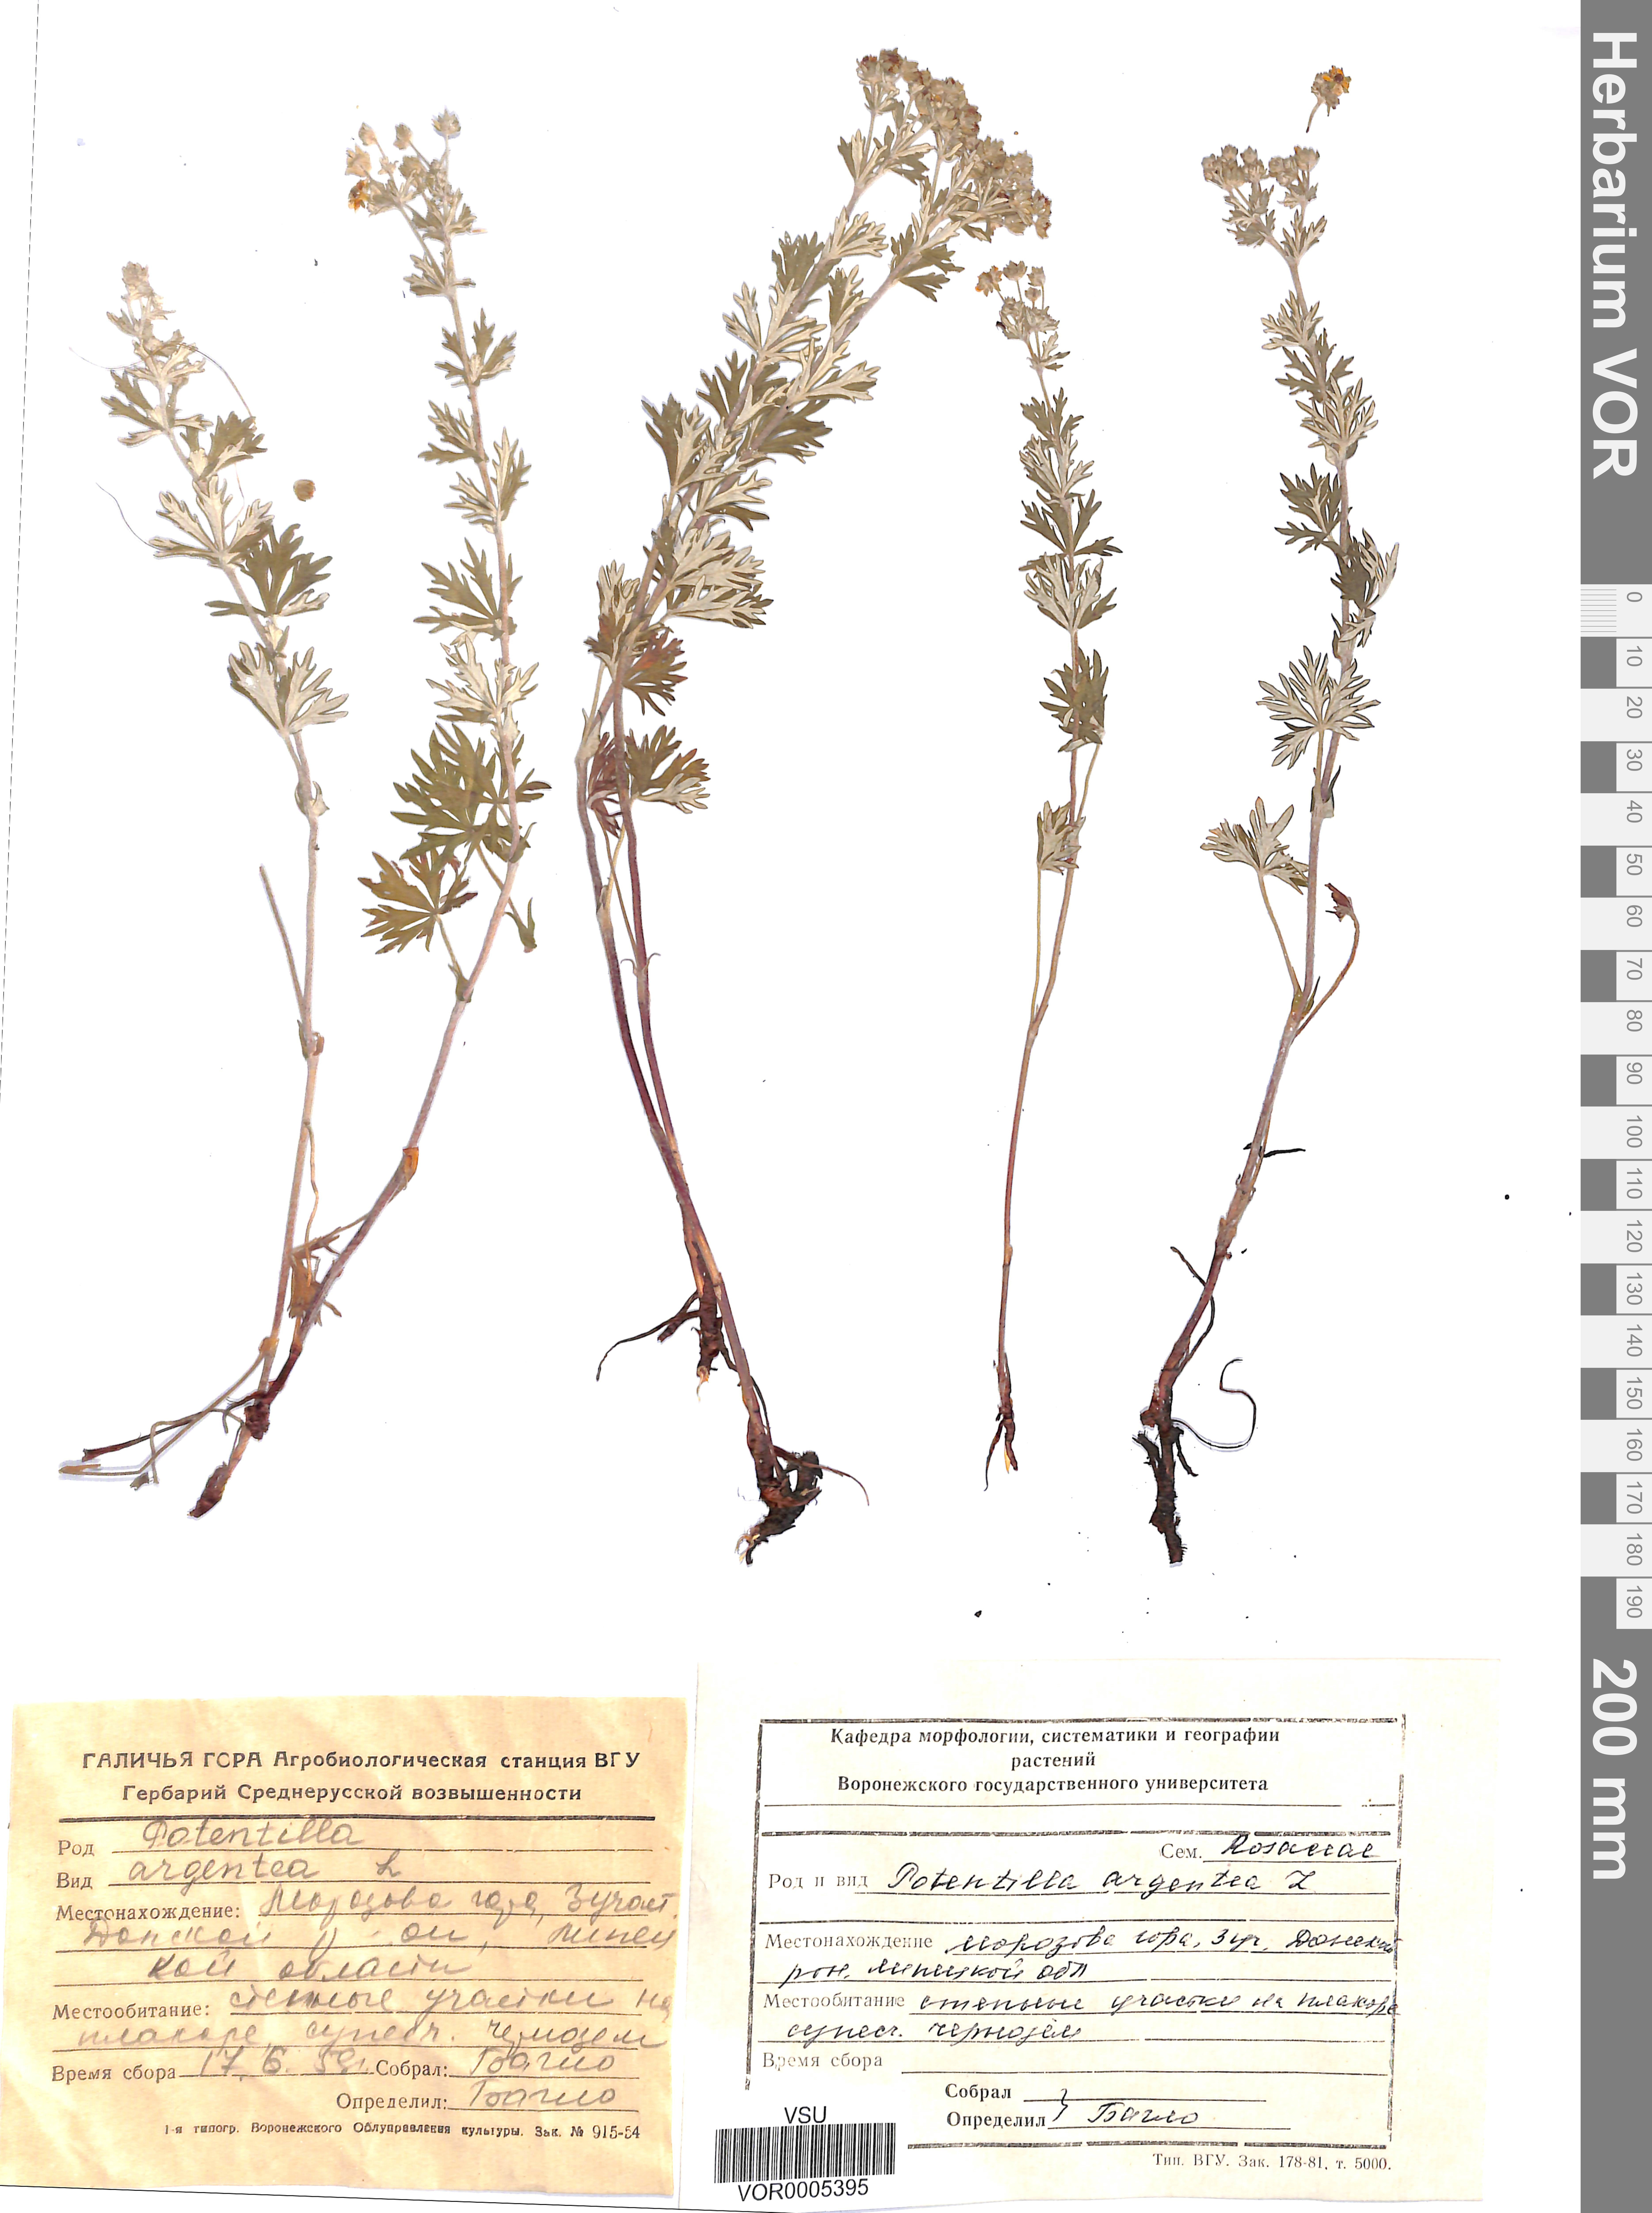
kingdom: Plantae
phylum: Tracheophyta
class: Magnoliopsida
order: Rosales
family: Rosaceae
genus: Potentilla
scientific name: Potentilla argentea
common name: Hoary cinquefoil
